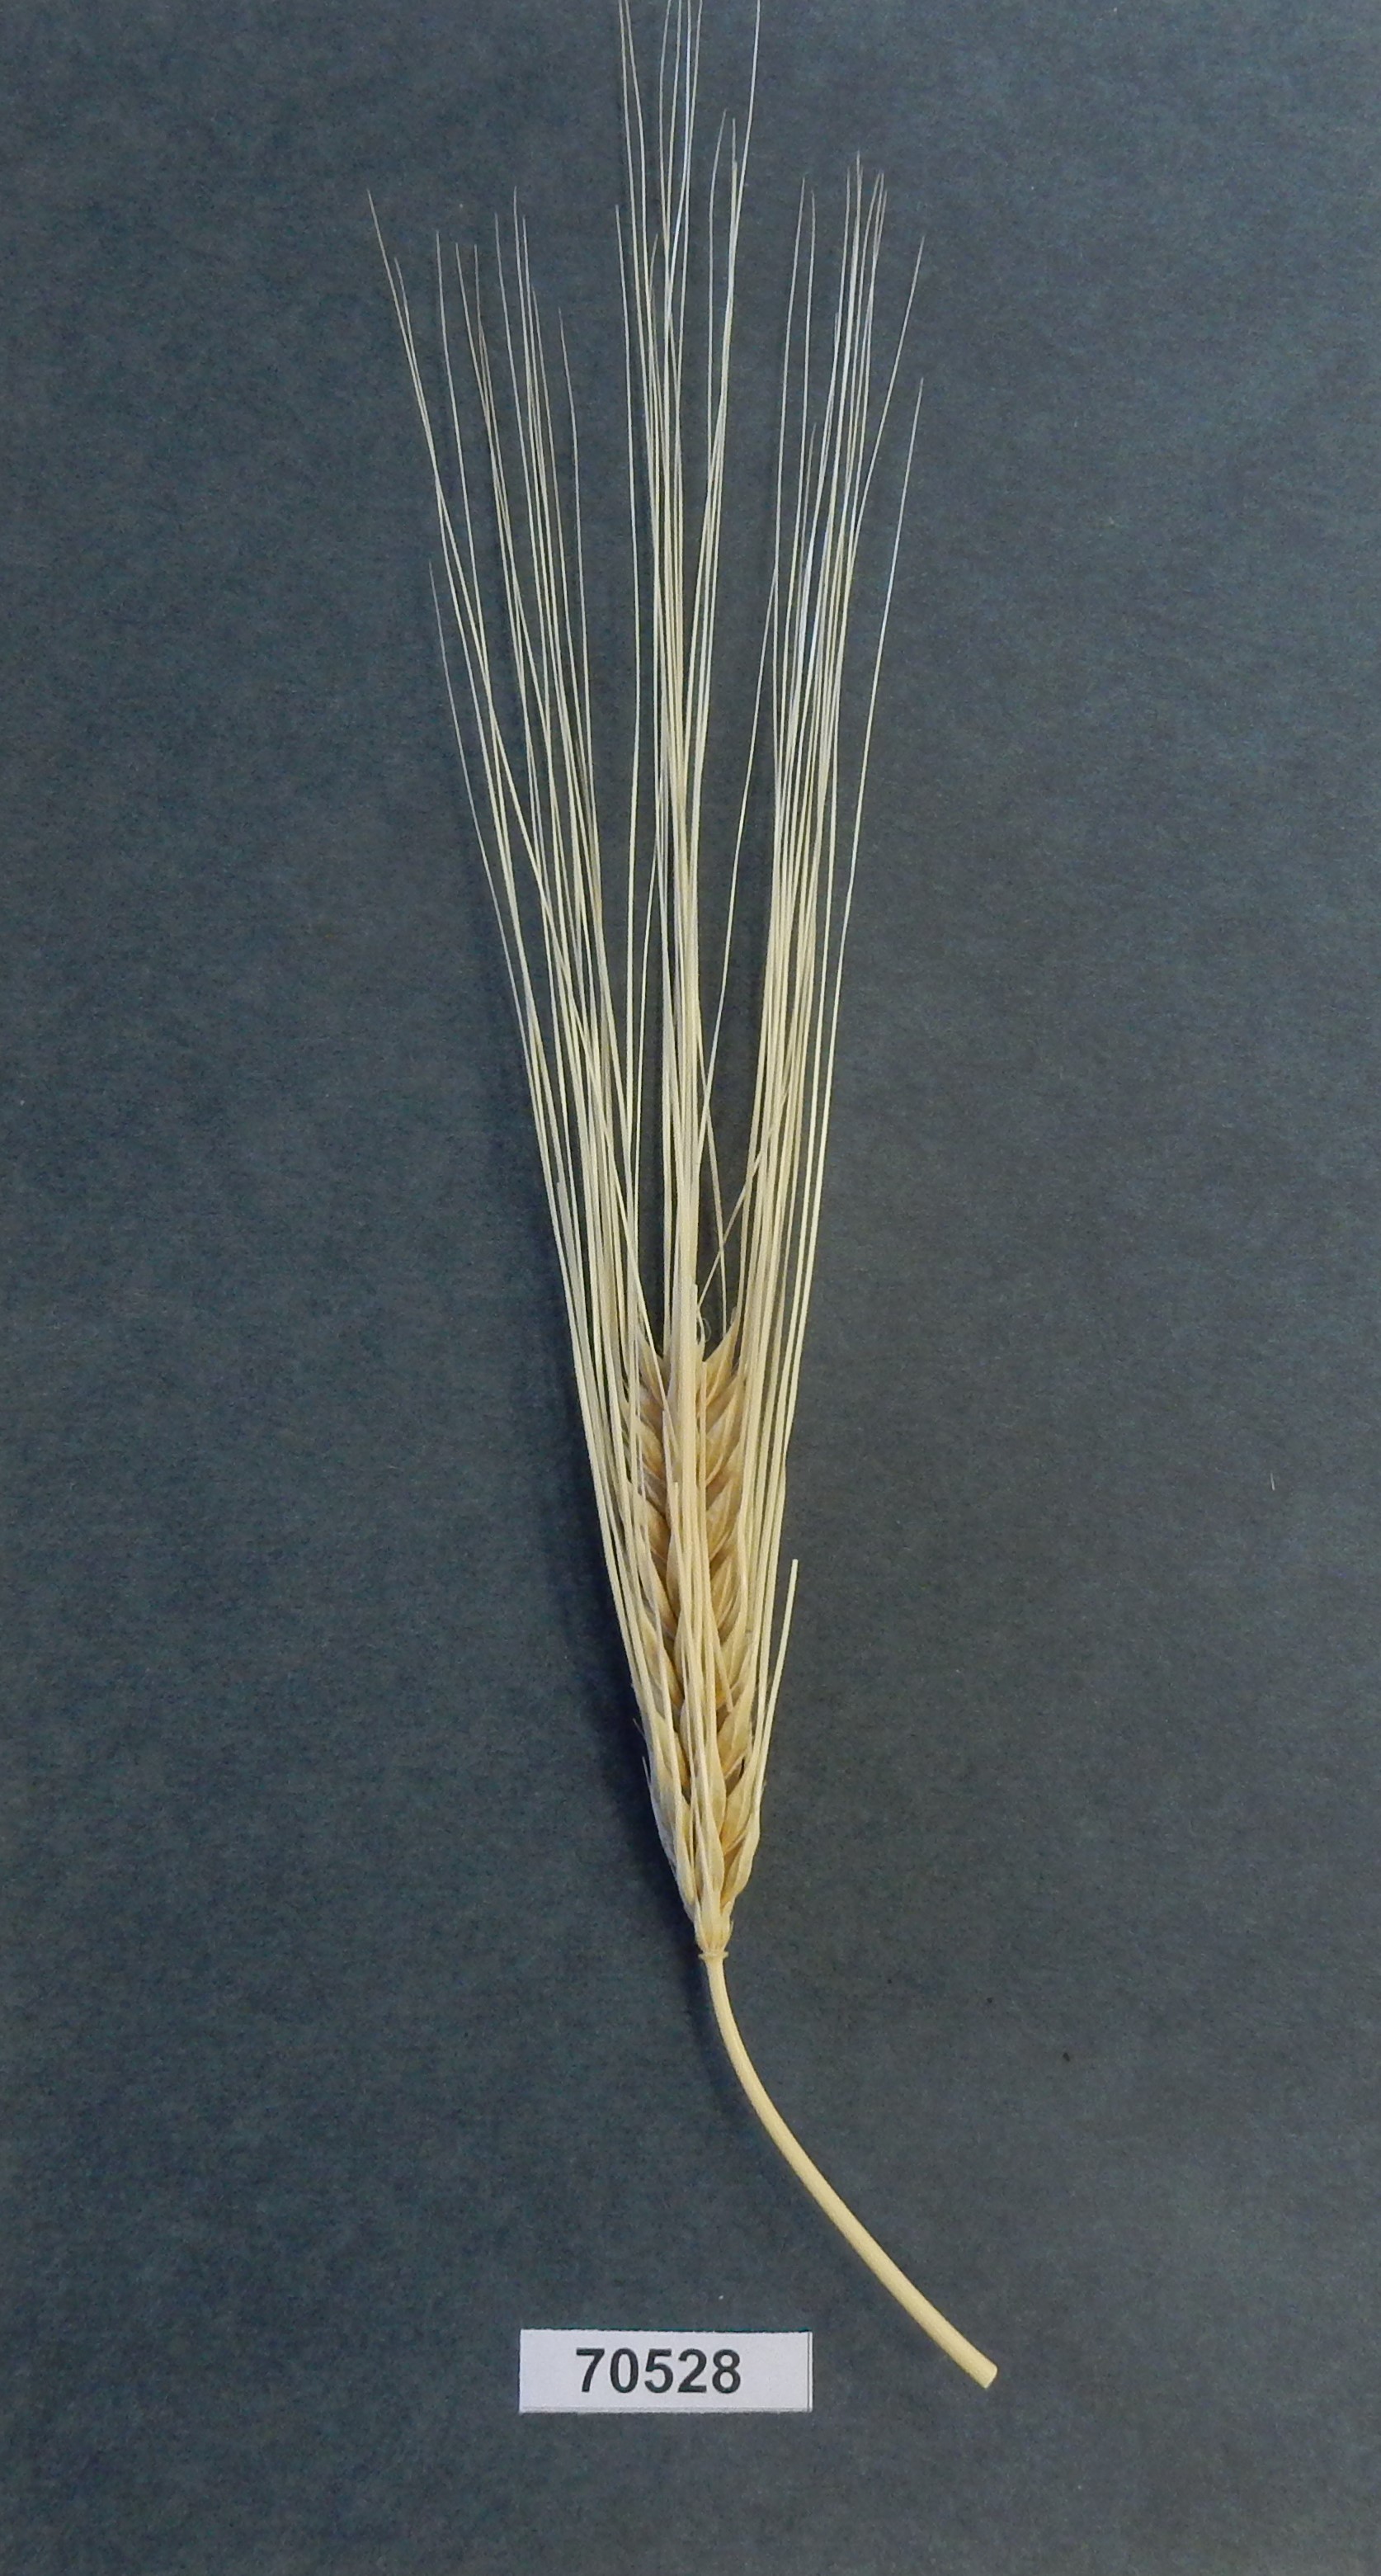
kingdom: Plantae
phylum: Tracheophyta
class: Liliopsida
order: Poales
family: Poaceae
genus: Hordeum
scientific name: Hordeum
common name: Barley
